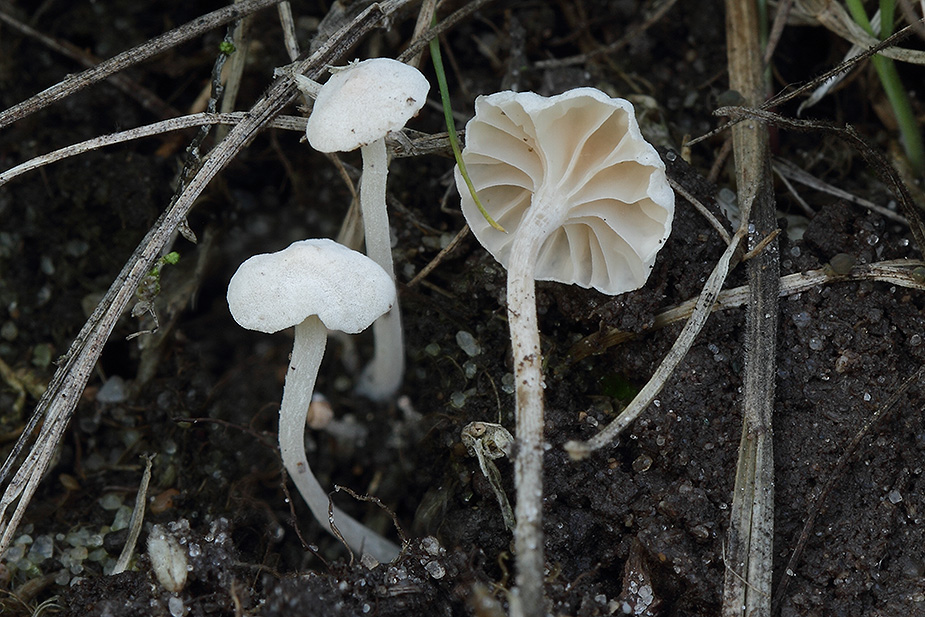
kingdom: Fungi
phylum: Basidiomycota
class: Agaricomycetes
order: Agaricales
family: Omphalotaceae
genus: Marasmiellus
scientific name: Marasmiellus tricolor
